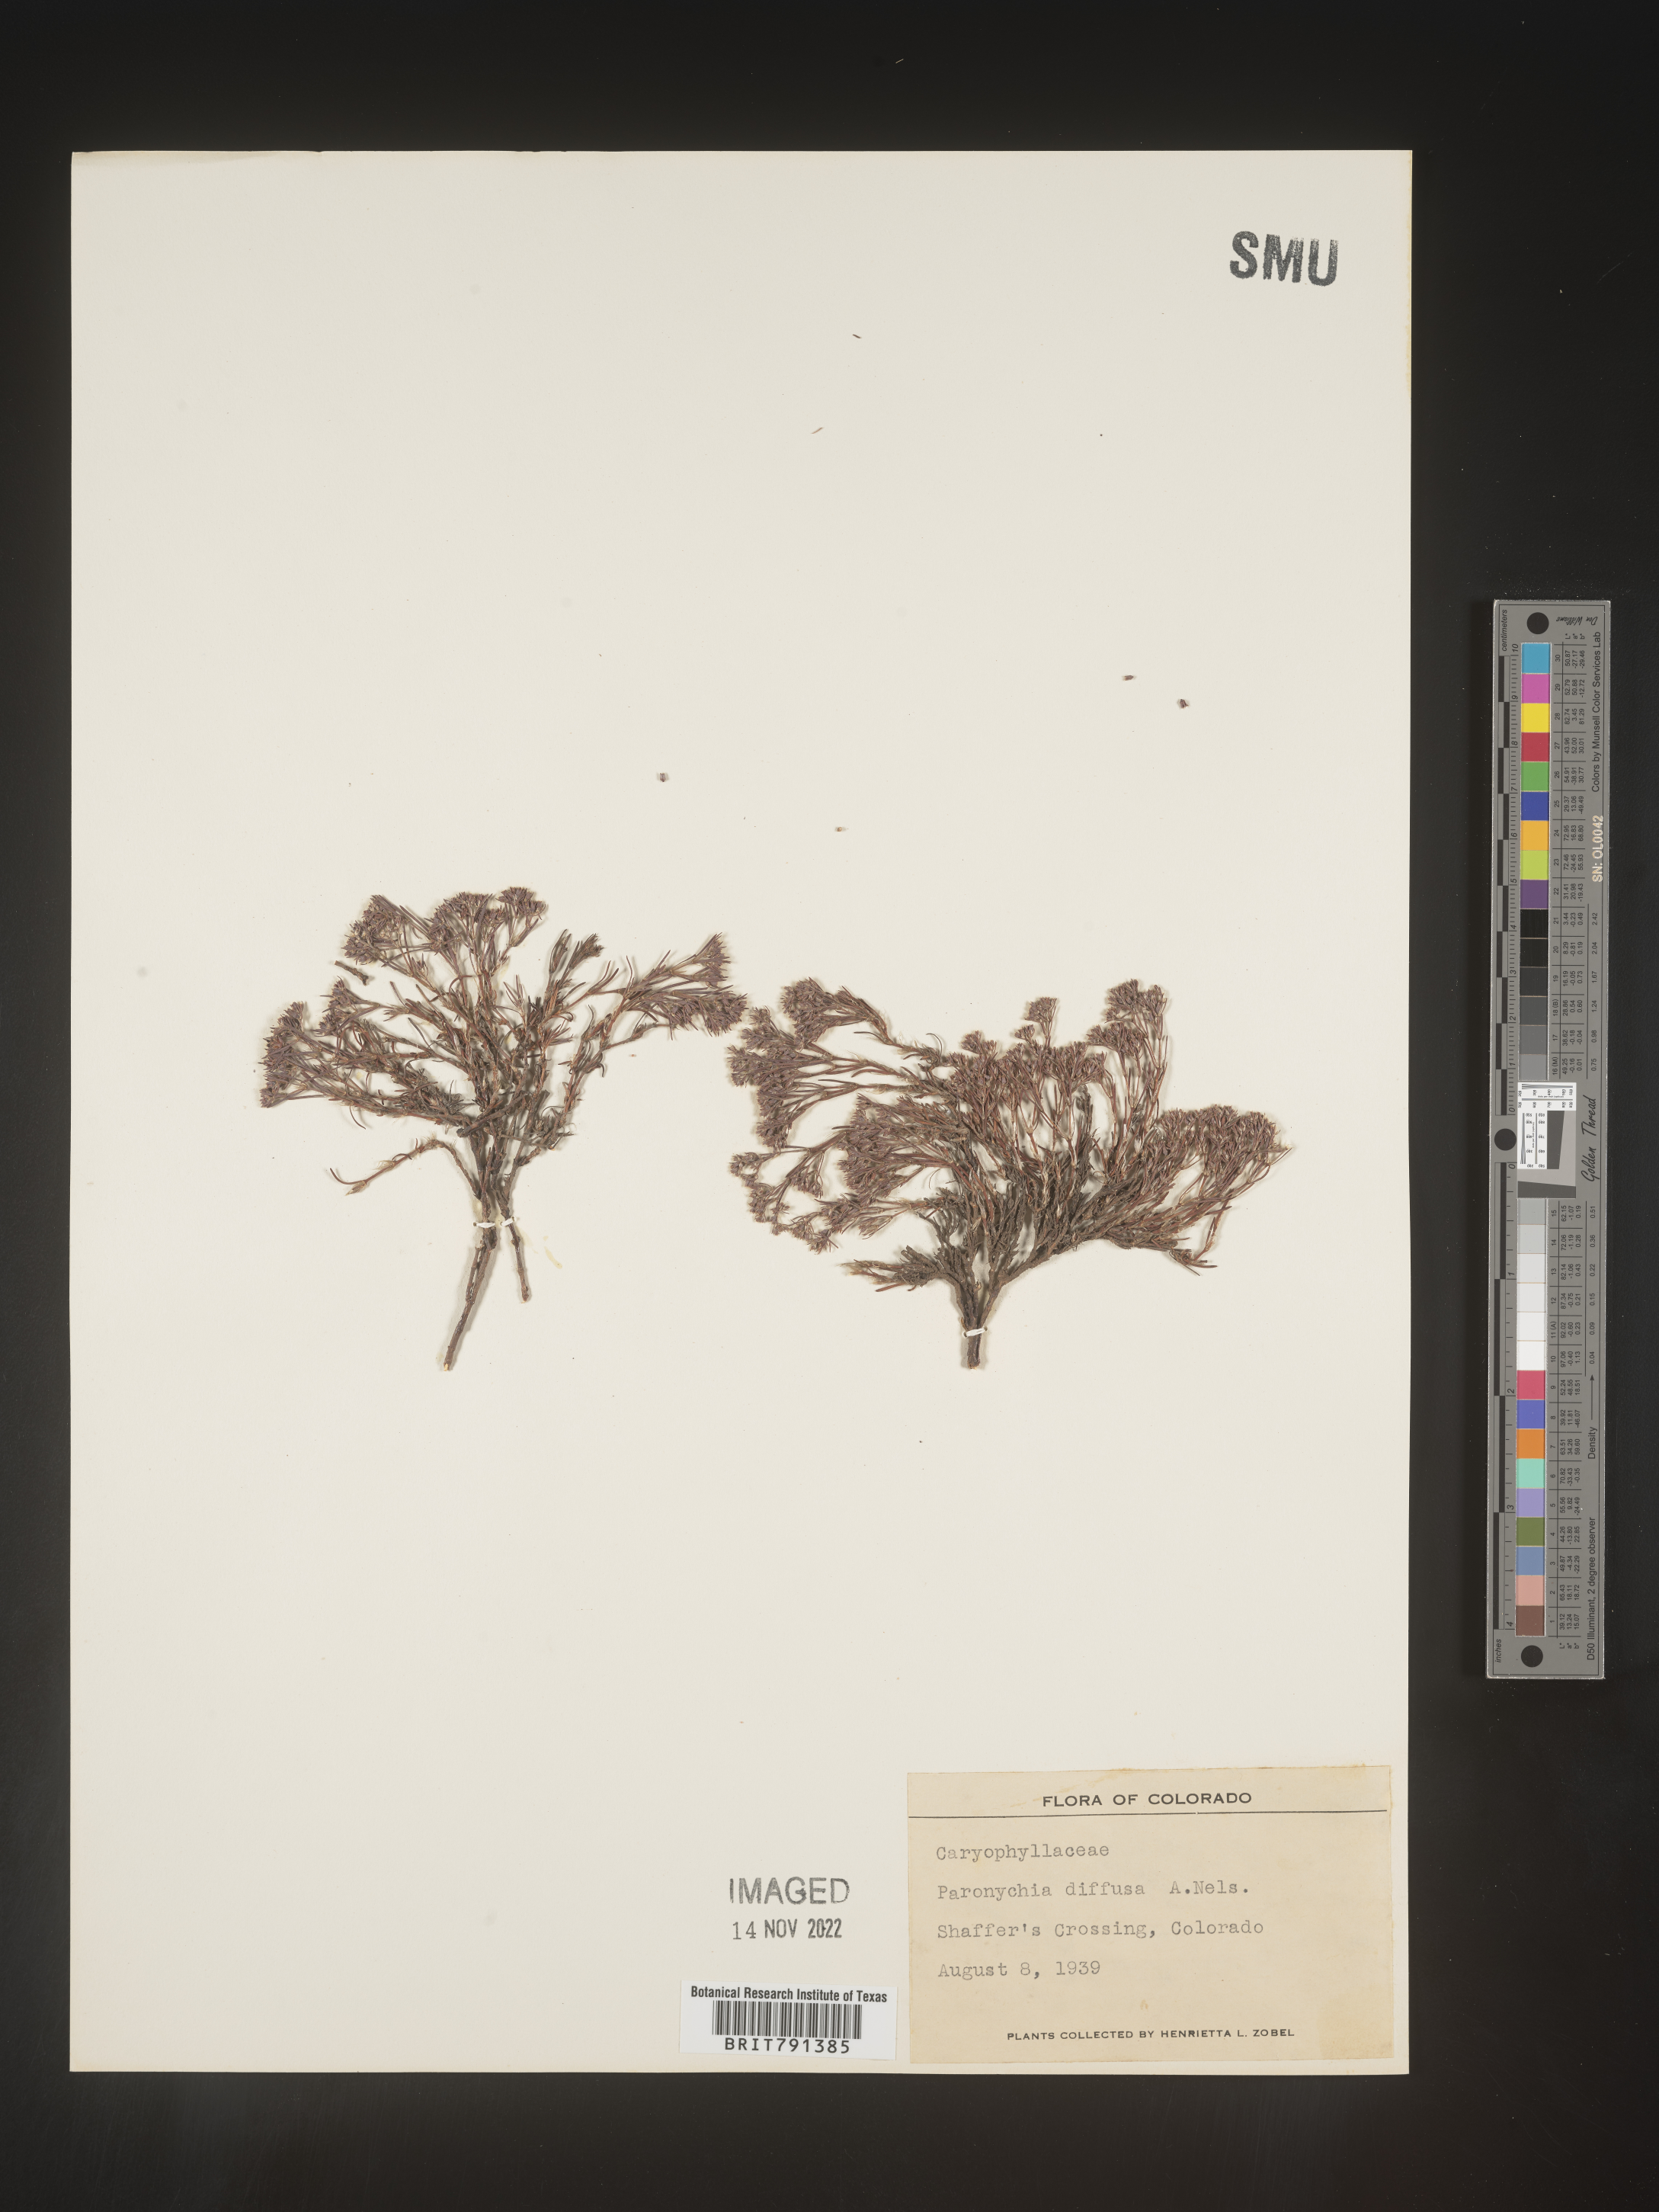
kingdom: Plantae
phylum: Tracheophyta
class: Magnoliopsida
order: Caryophyllales
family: Caryophyllaceae
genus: Paronychia
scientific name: Paronychia
